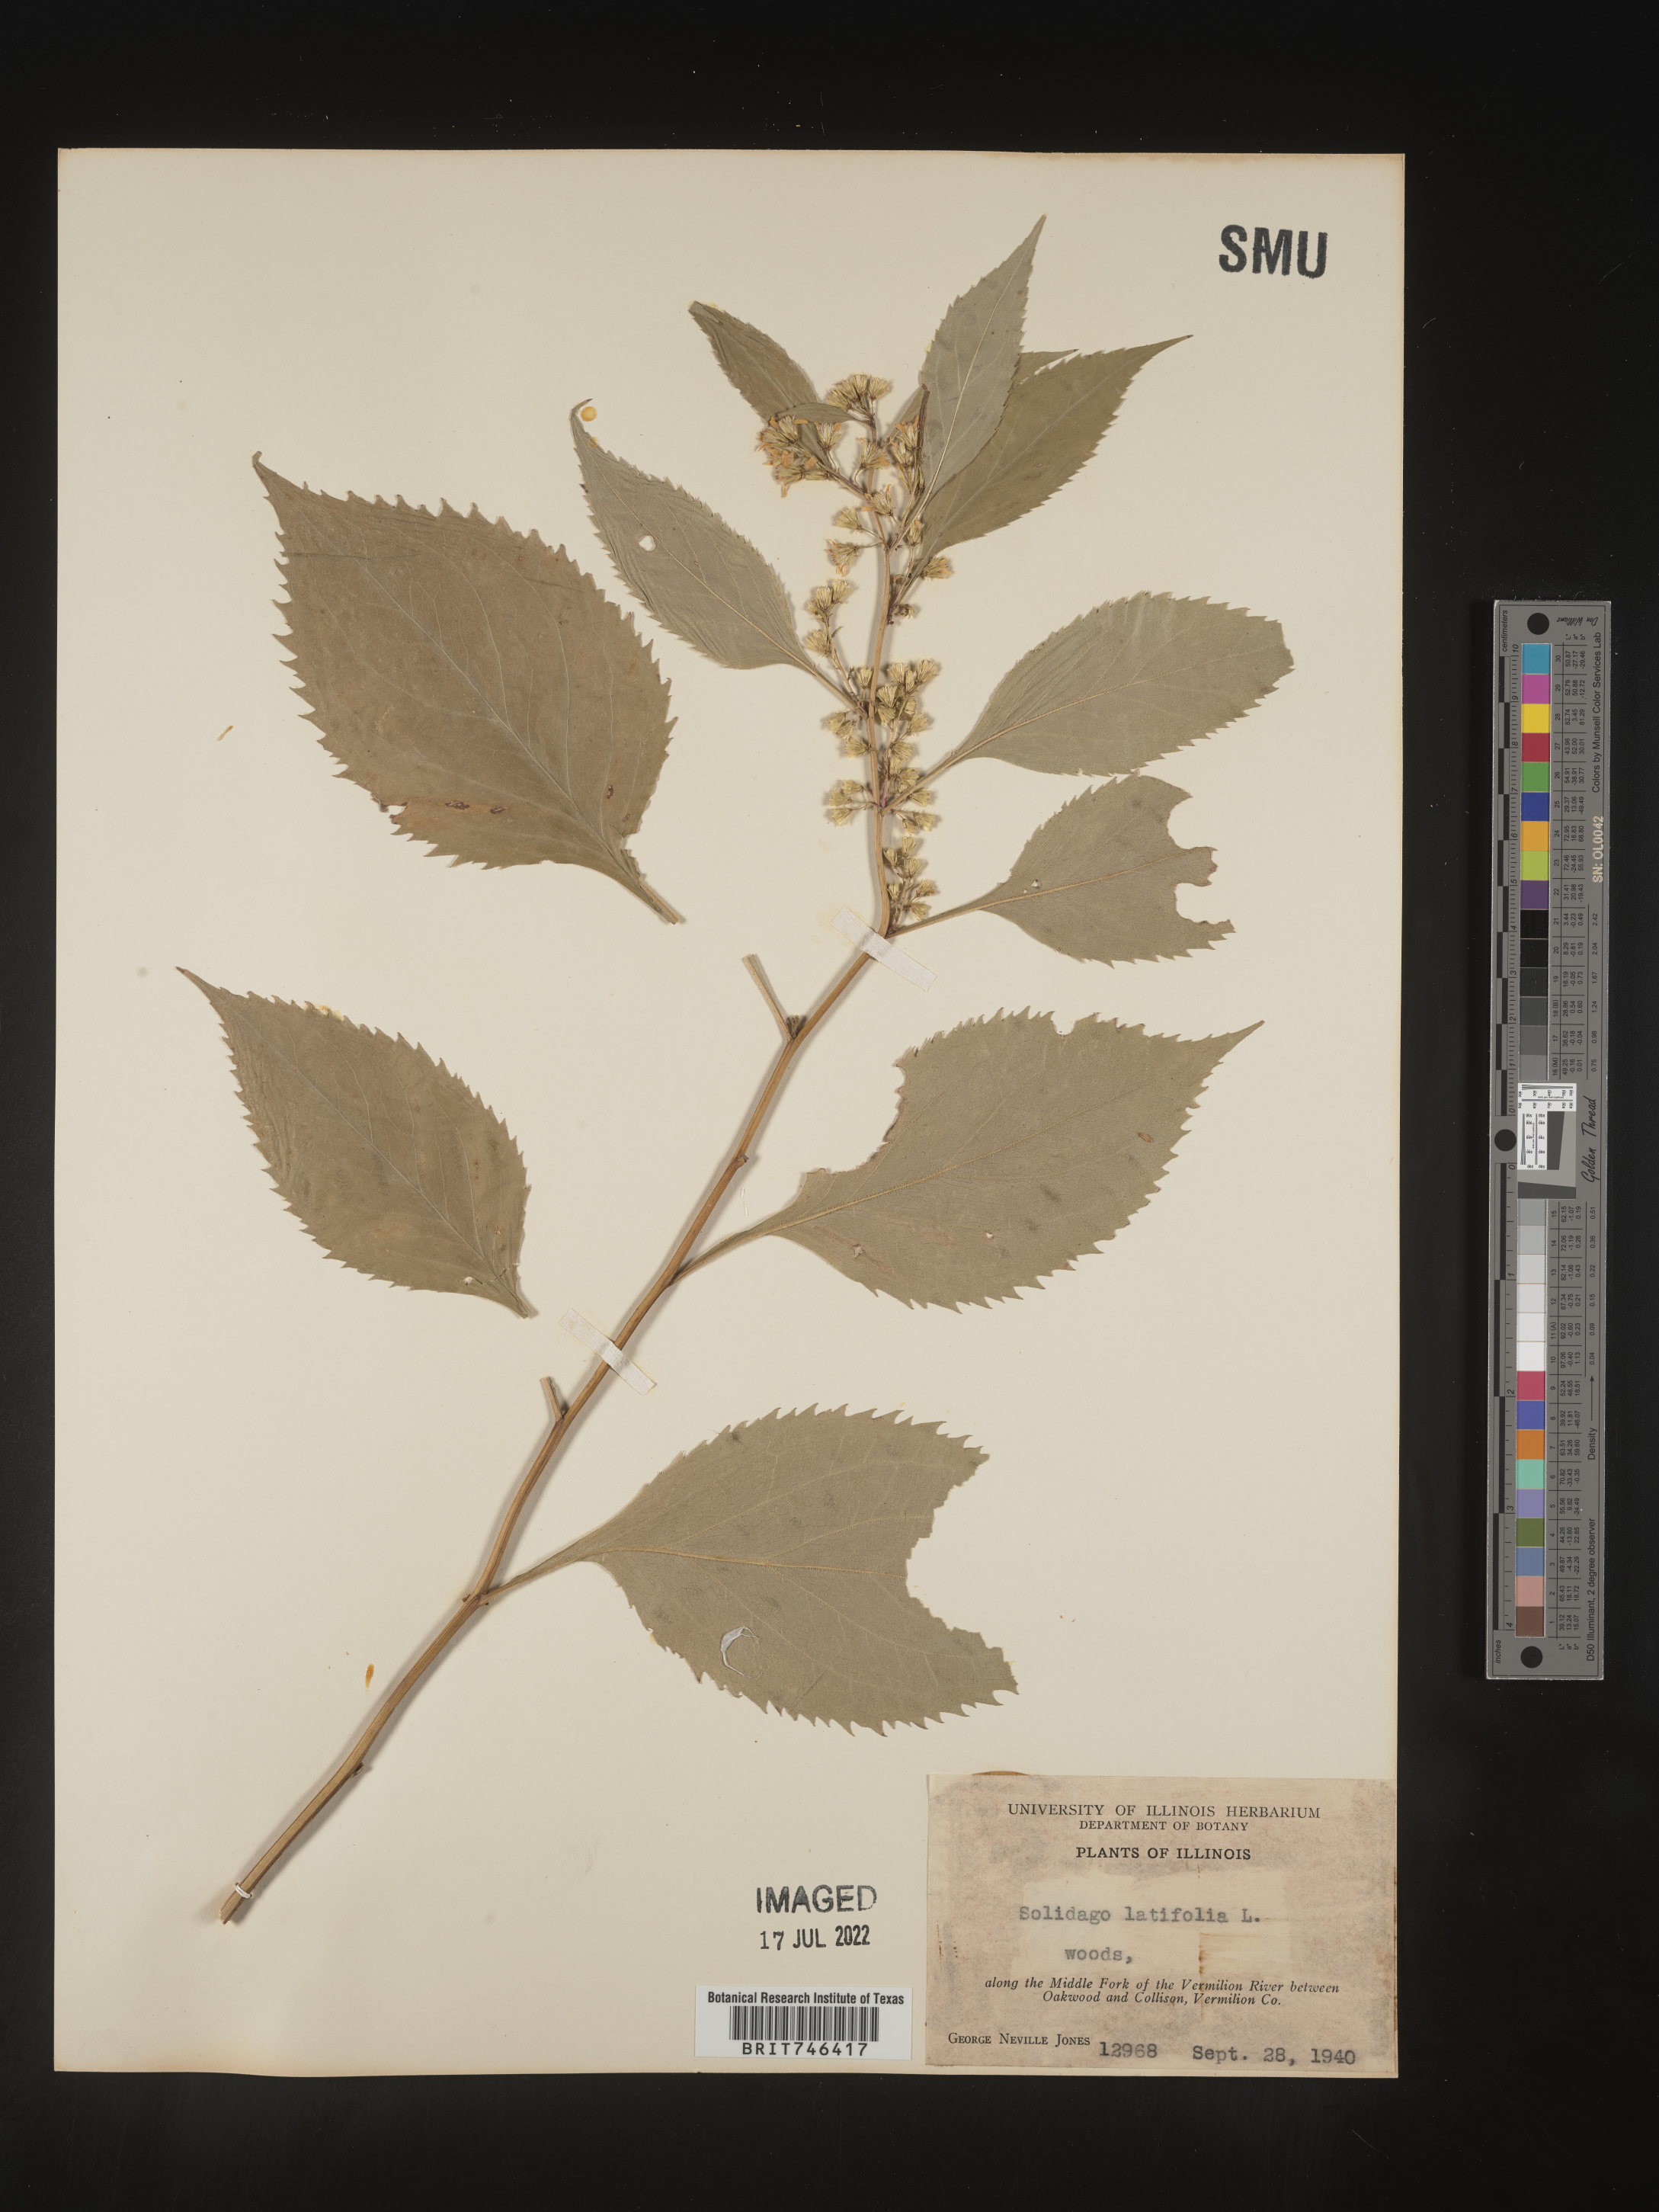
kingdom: Plantae
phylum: Tracheophyta
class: Magnoliopsida
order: Asterales
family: Asteraceae
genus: Solidago
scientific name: Solidago flexicaulis
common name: Zig-zag goldenrod
